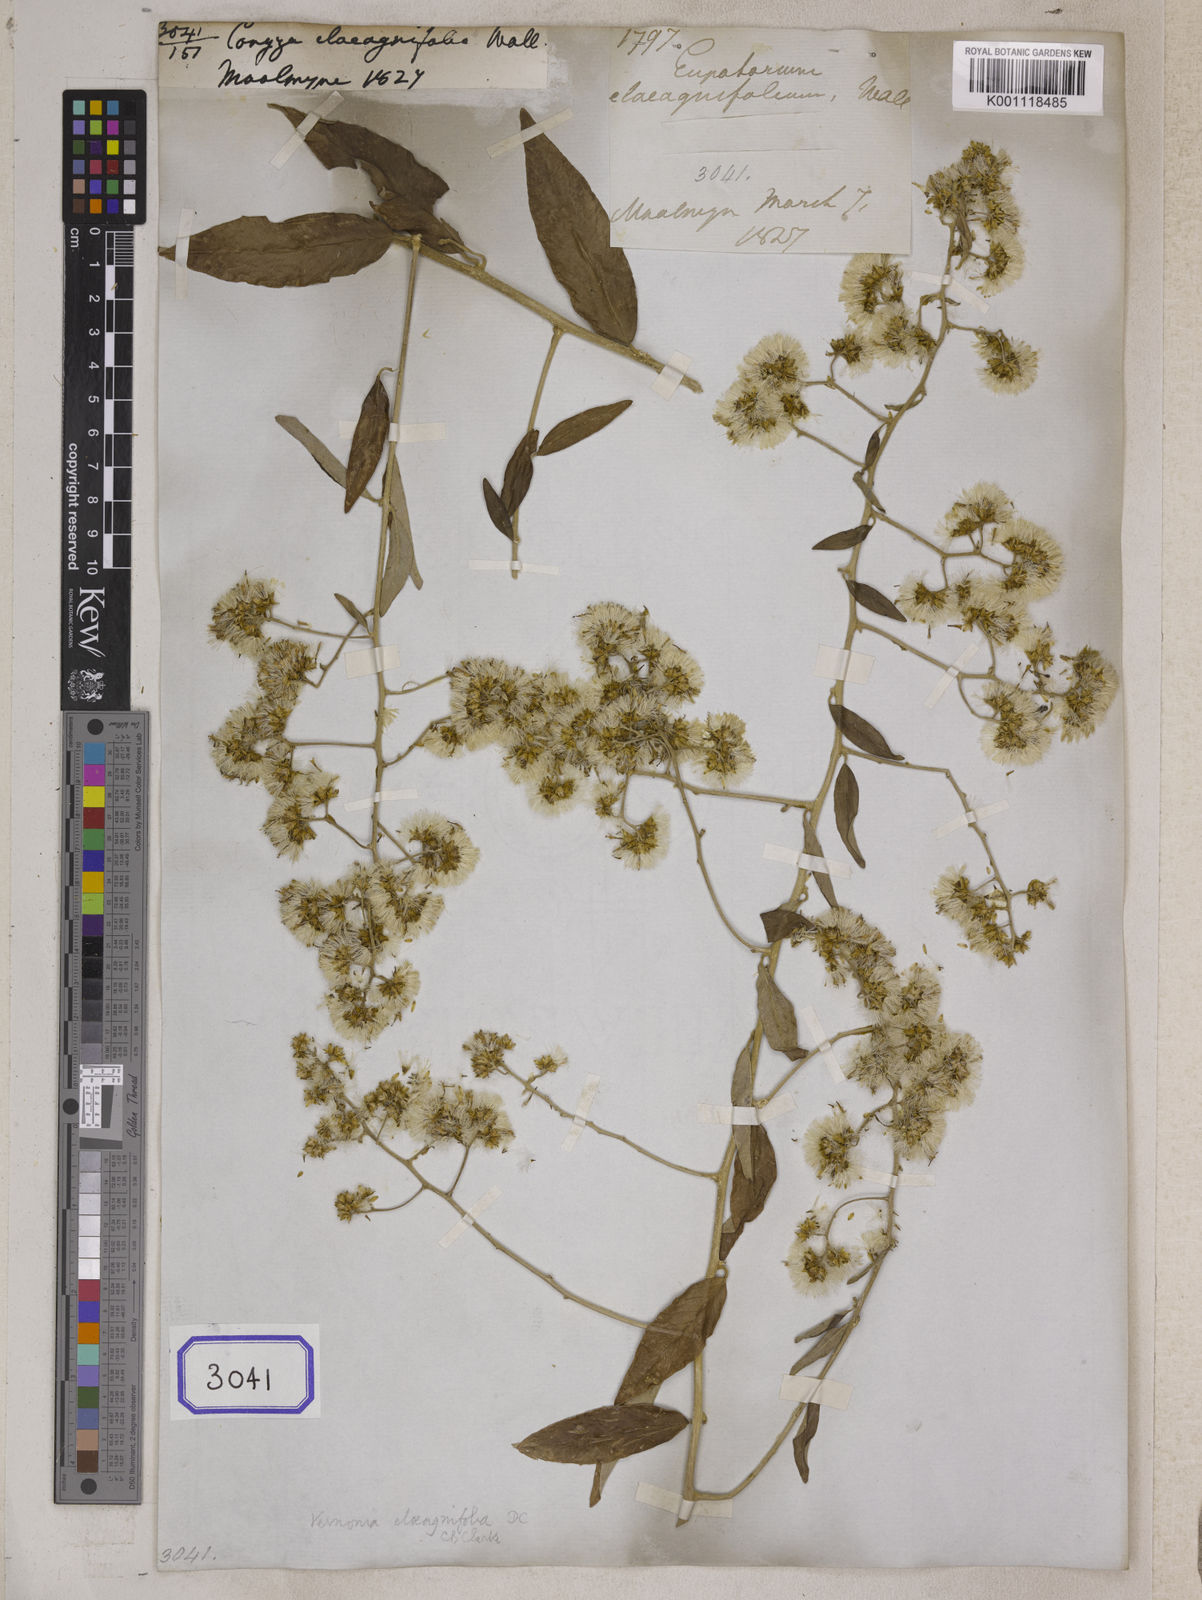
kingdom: Plantae
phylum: Tracheophyta
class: Magnoliopsida
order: Asterales
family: Asteraceae
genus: Tarlmounia
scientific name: Tarlmounia elliptica
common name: Kheua sa lot
